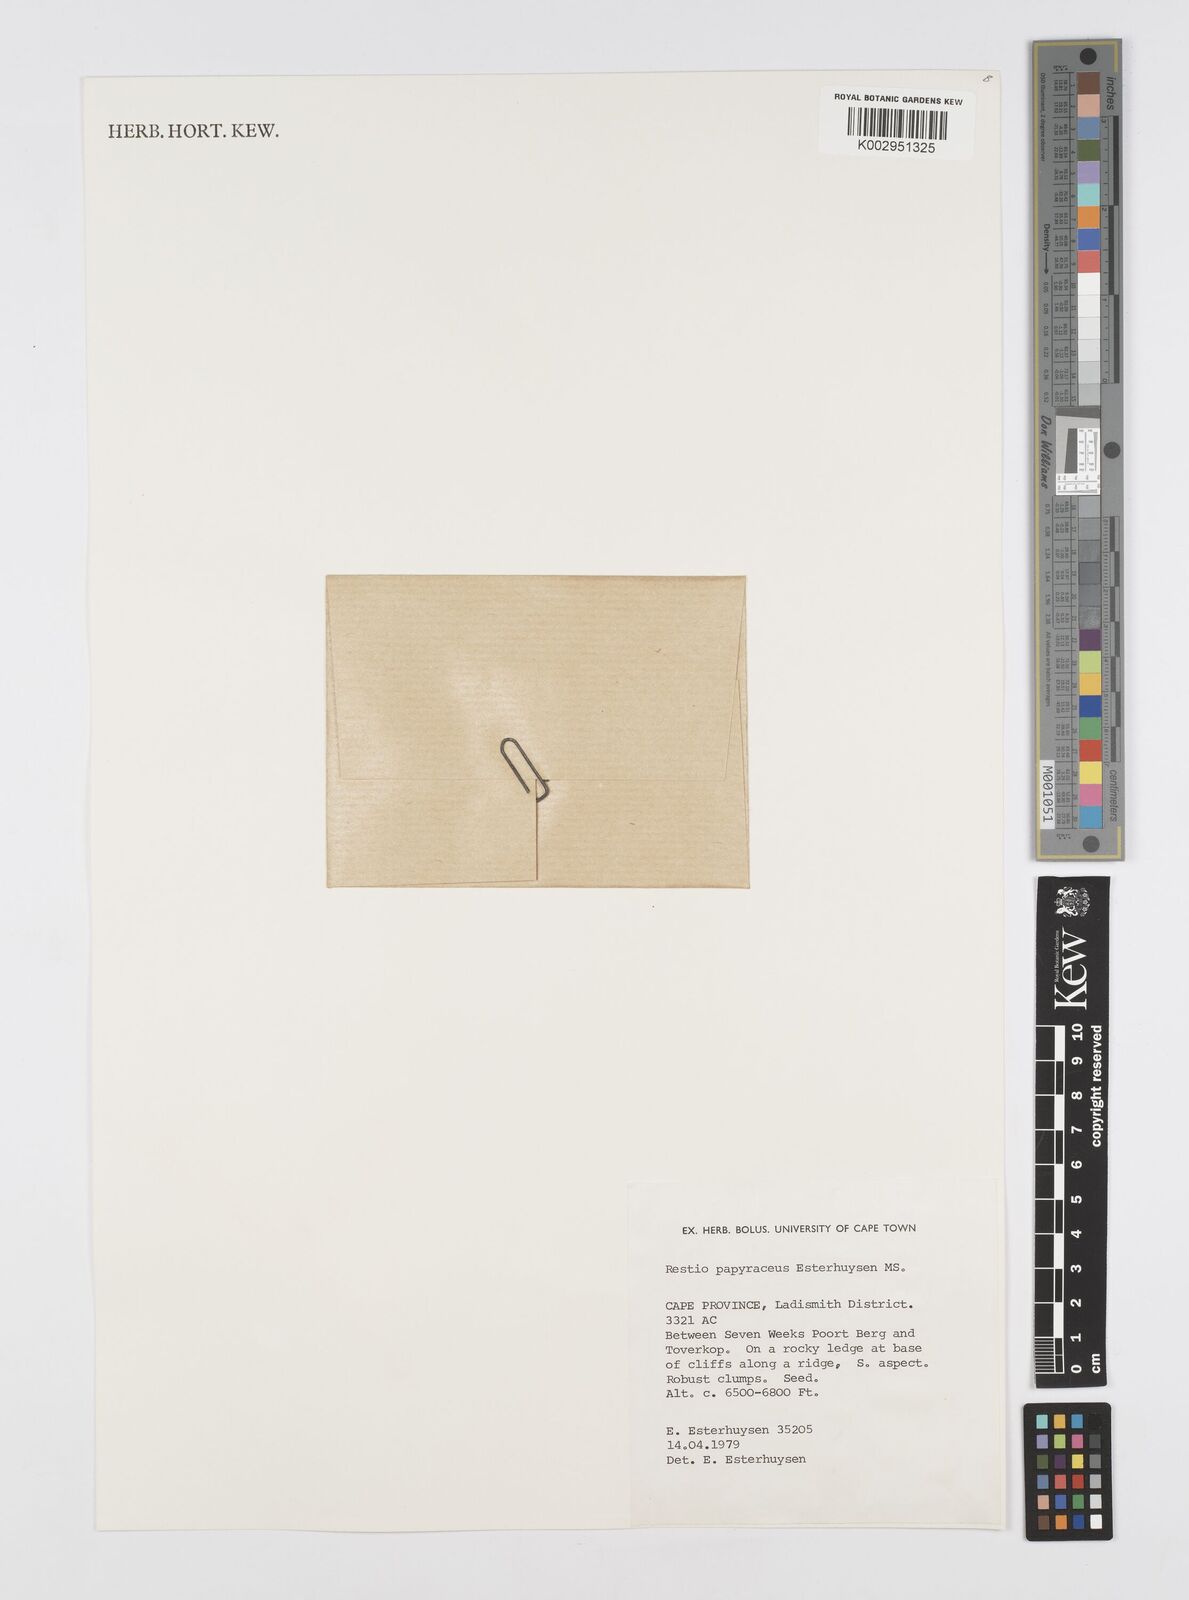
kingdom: Plantae
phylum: Tracheophyta
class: Liliopsida
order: Poales
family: Restionaceae
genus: Restio
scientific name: Restio papyraceus
